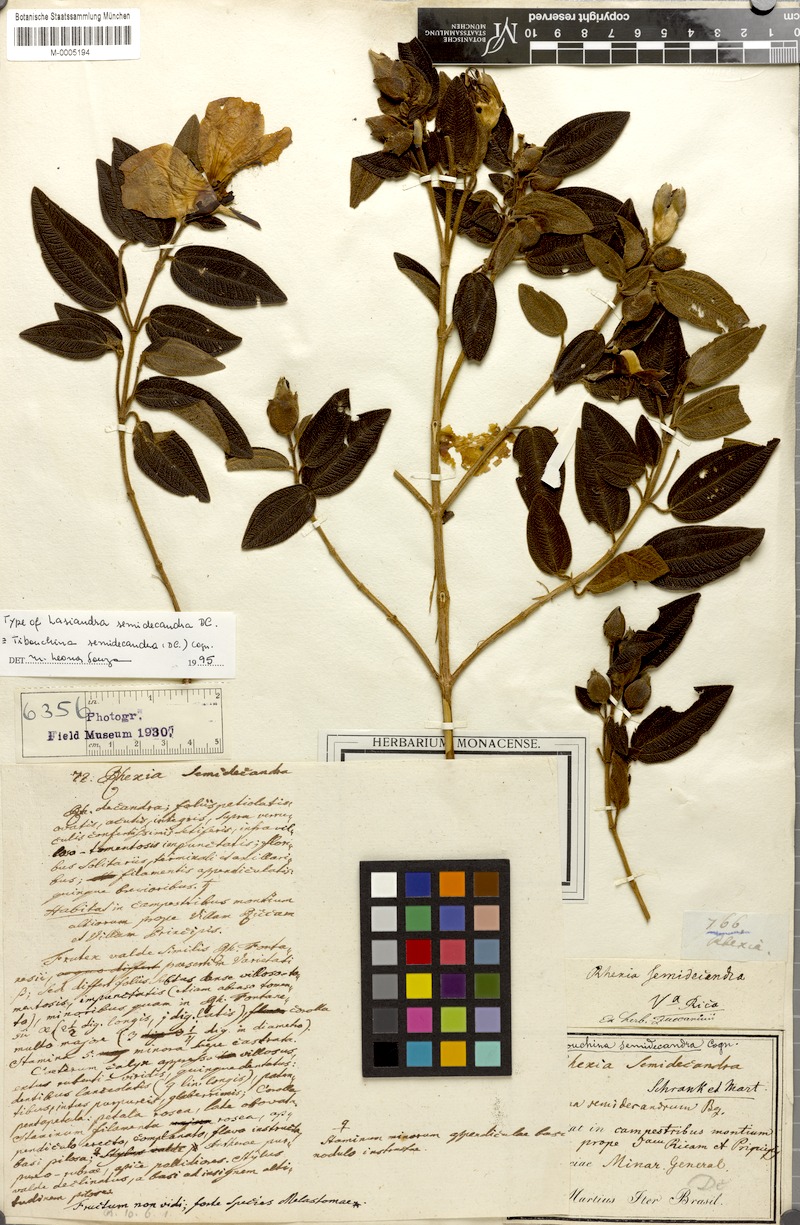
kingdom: Plantae
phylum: Tracheophyta
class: Magnoliopsida
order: Myrtales
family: Melastomataceae
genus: Pleroma
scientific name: Pleroma semidecandrum
